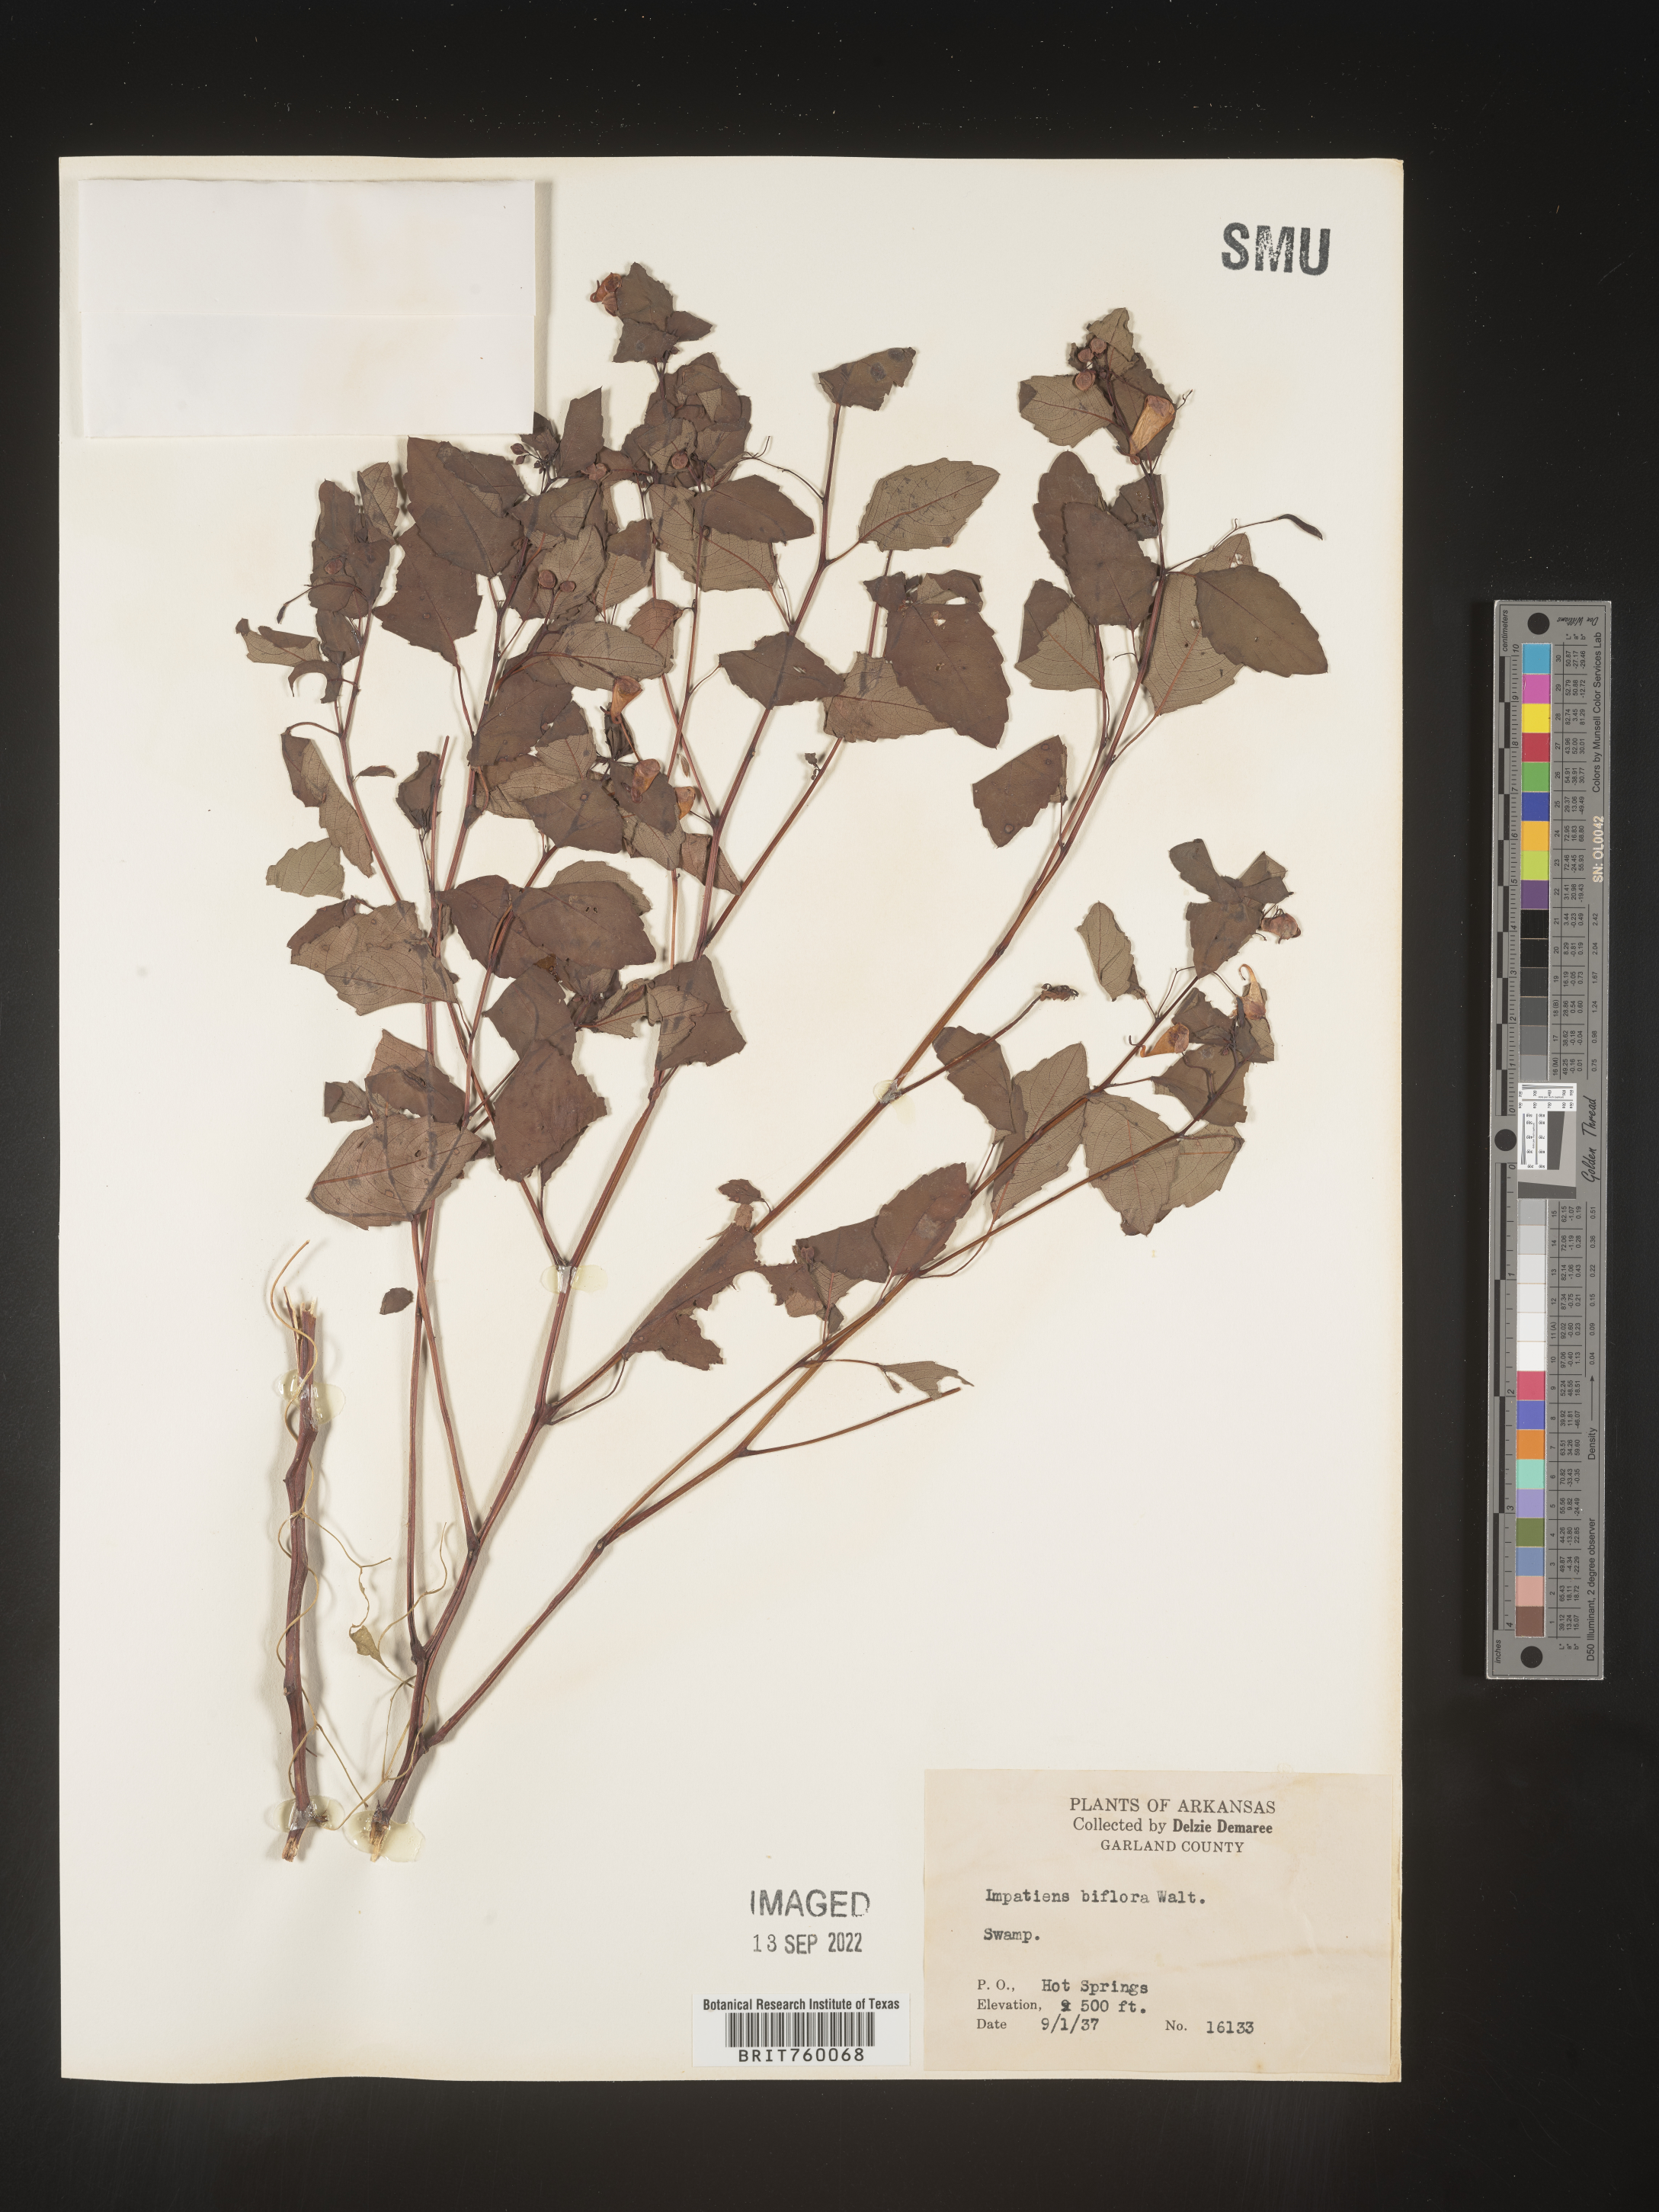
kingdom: Plantae
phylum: Tracheophyta
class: Magnoliopsida
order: Ericales
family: Balsaminaceae
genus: Impatiens
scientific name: Impatiens capensis
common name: Orange balsam
